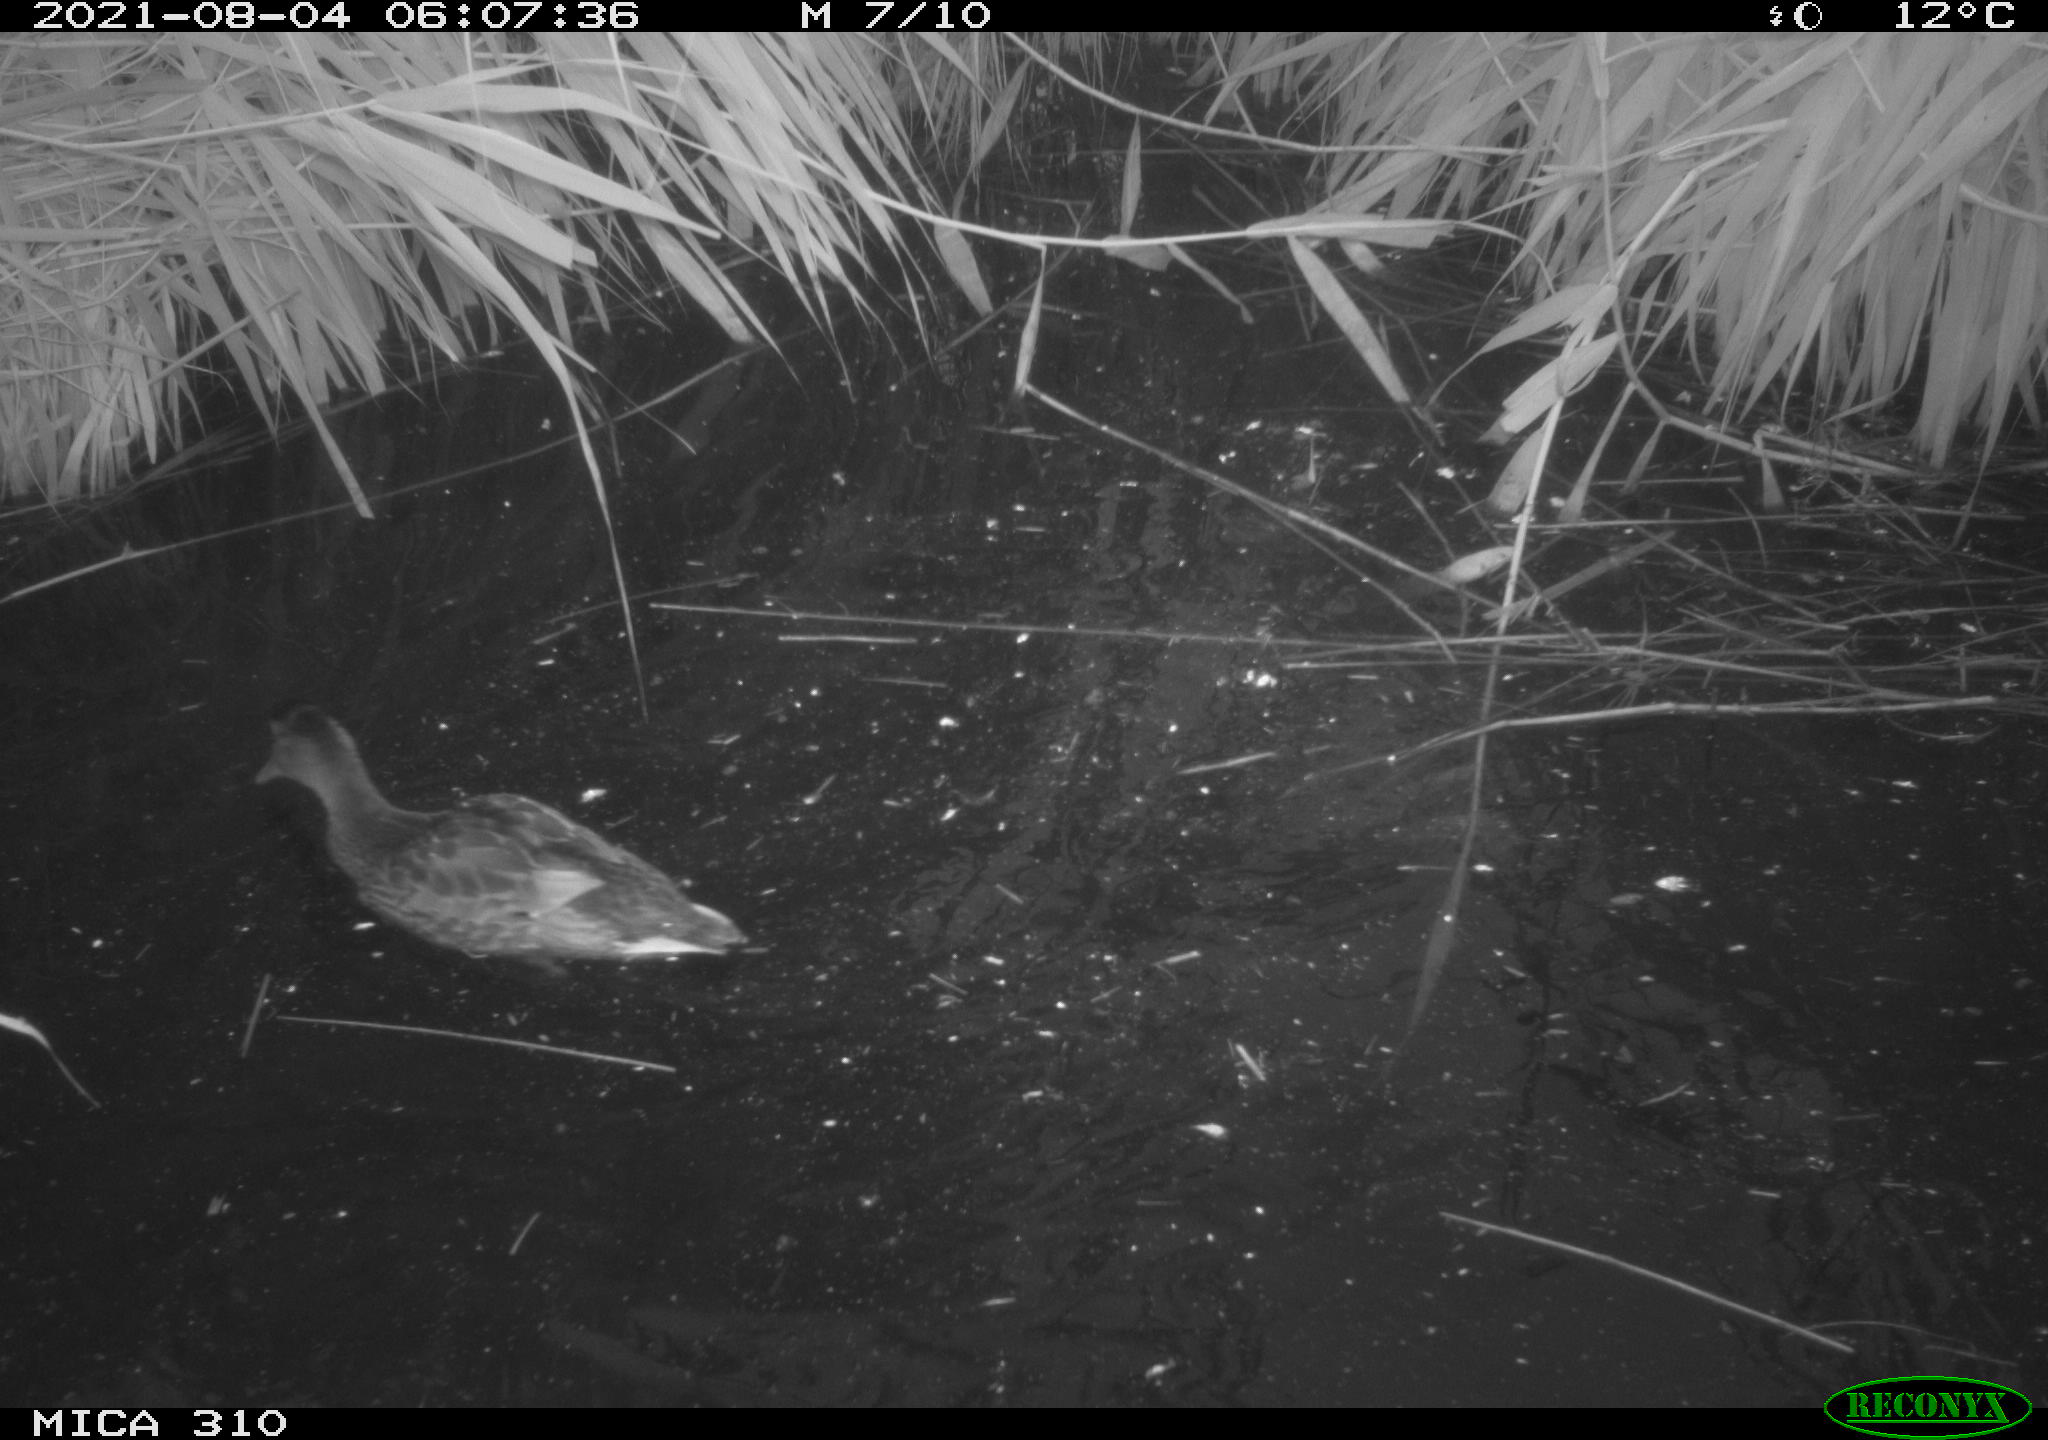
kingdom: Animalia
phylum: Chordata
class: Aves
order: Anseriformes
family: Anatidae
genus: Anas
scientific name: Anas platyrhynchos
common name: Mallard
